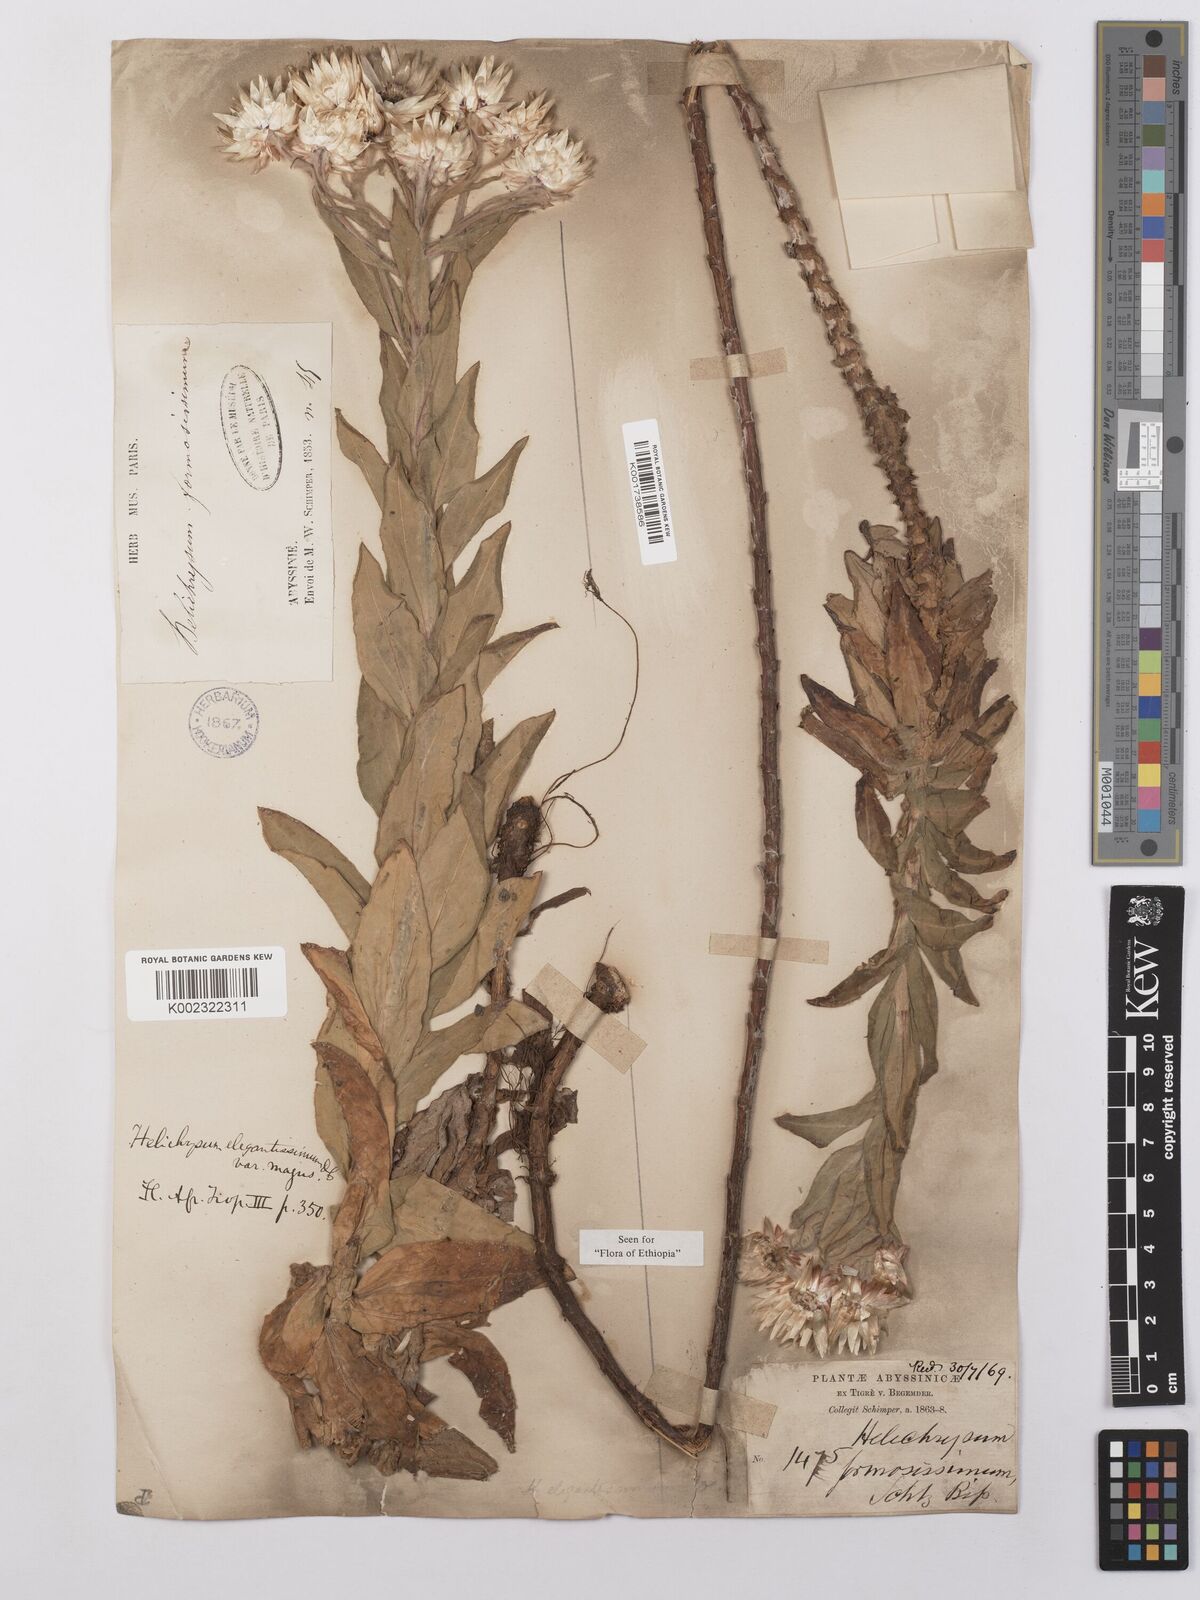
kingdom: Plantae
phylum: Tracheophyta
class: Magnoliopsida
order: Asterales
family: Asteraceae
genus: Helichrysum
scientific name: Helichrysum formosissimum
